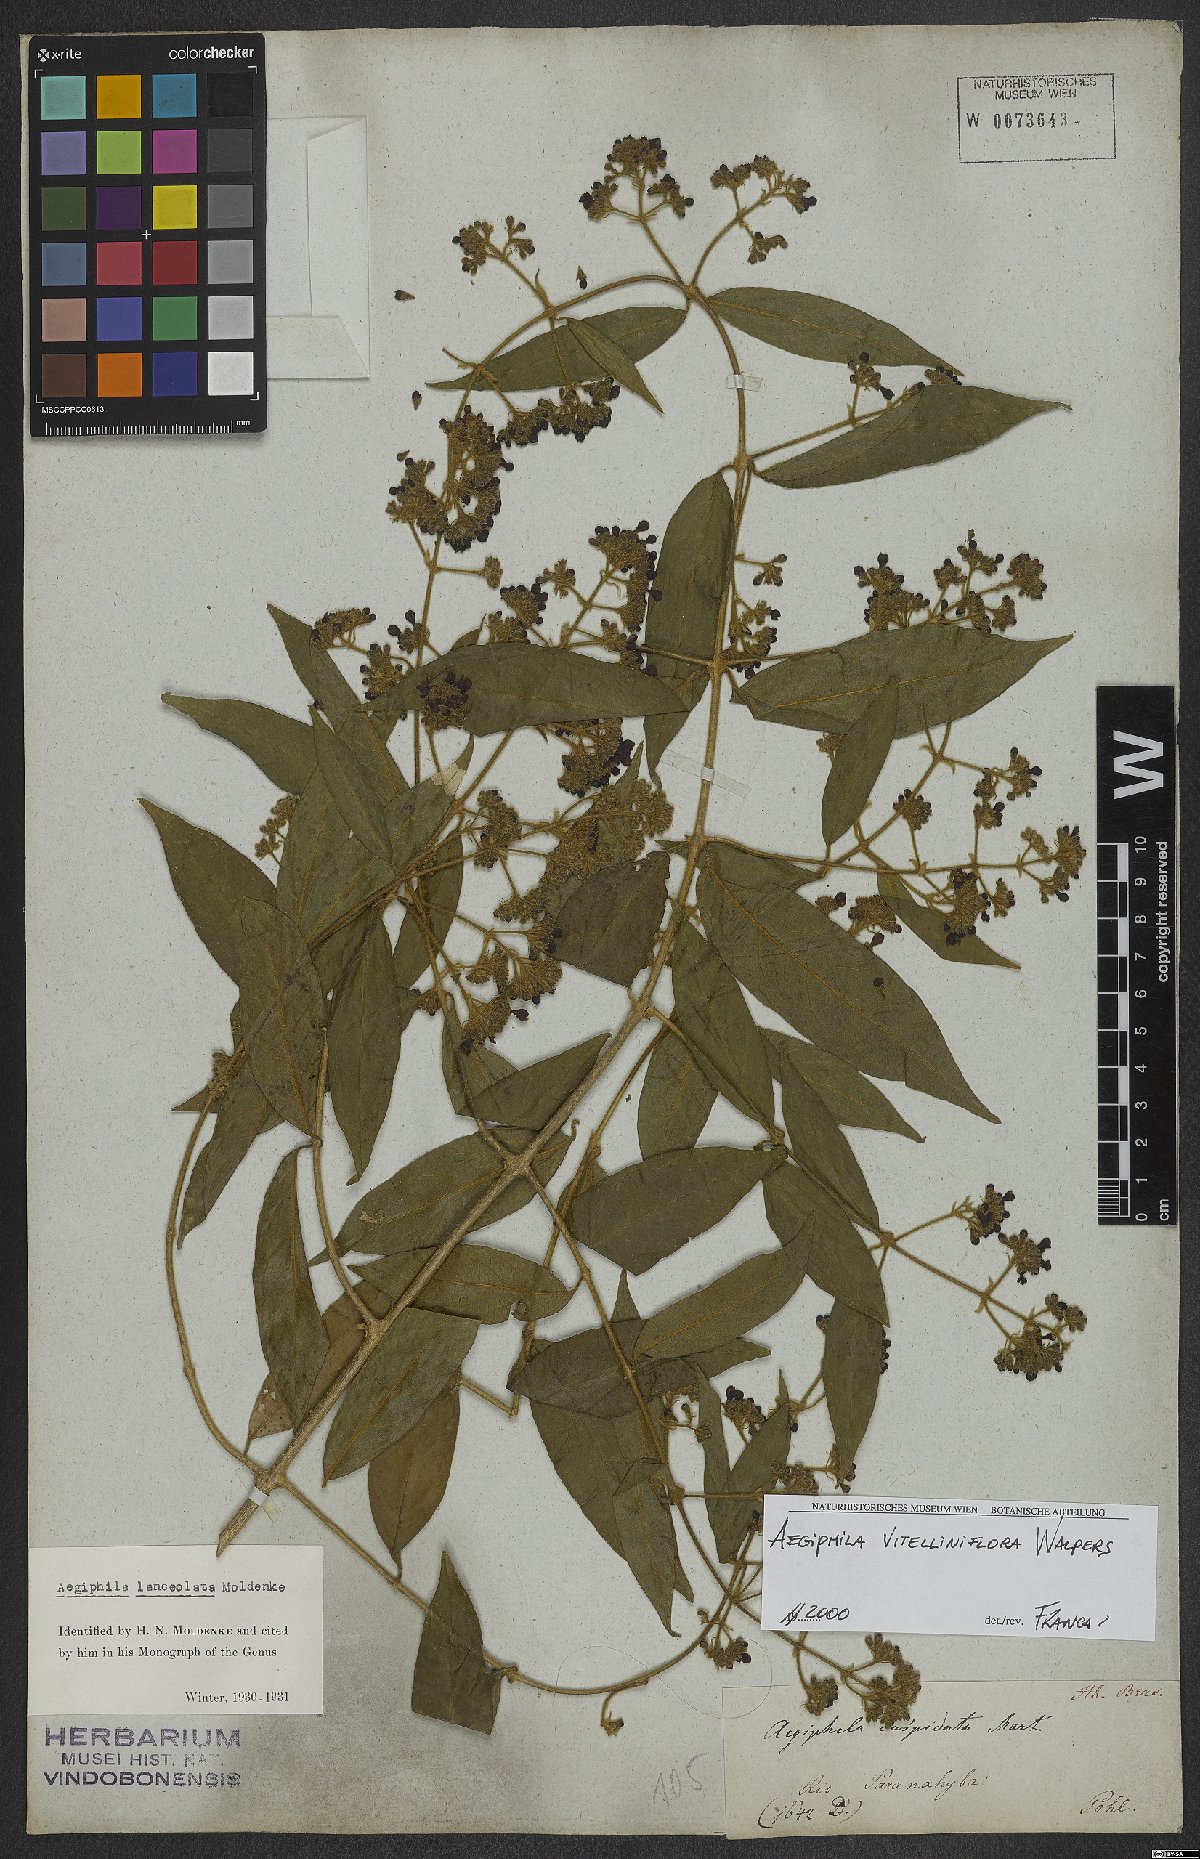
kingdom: Plantae
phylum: Tracheophyta
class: Magnoliopsida
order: Lamiales
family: Lamiaceae
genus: Aegiphila
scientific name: Aegiphila vitelliniflora
